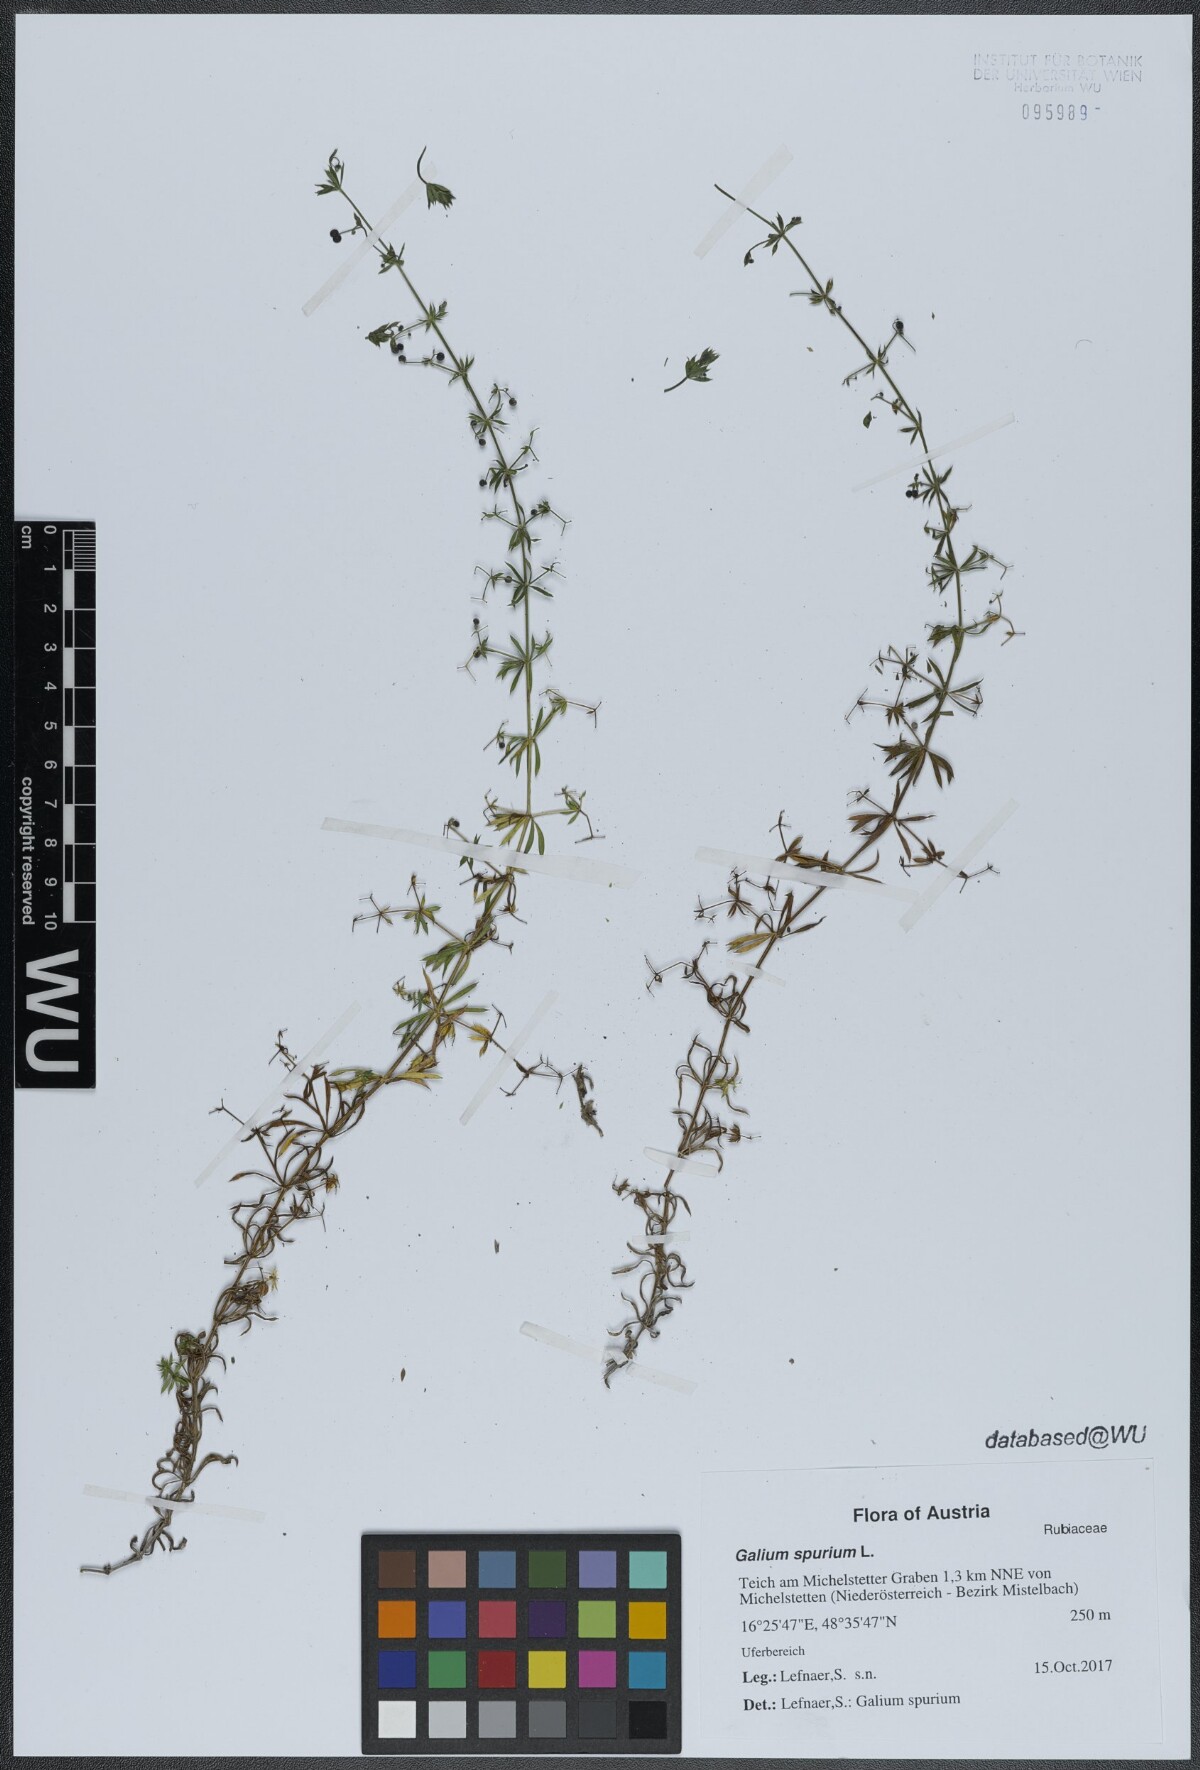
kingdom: Plantae
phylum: Tracheophyta
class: Magnoliopsida
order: Gentianales
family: Rubiaceae
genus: Galium
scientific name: Galium spurium
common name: False cleavers
